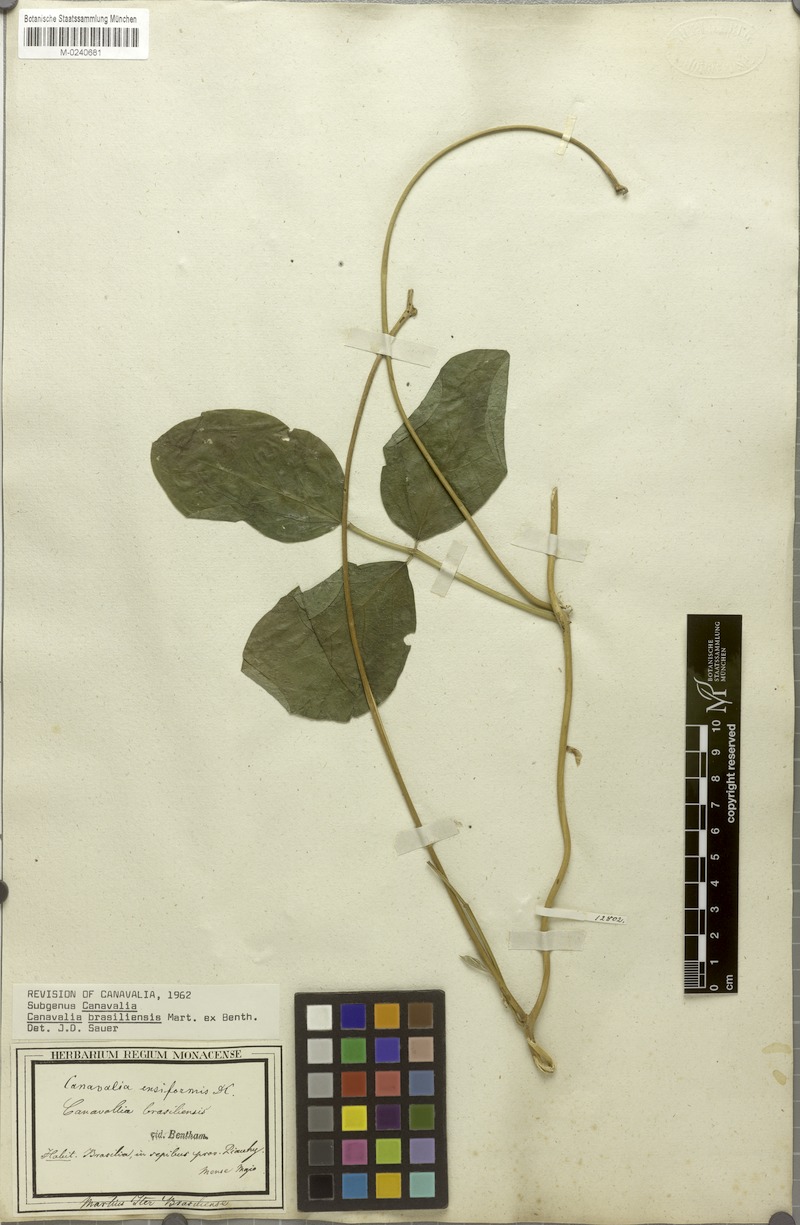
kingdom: Plantae
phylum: Tracheophyta
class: Magnoliopsida
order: Fabales
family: Fabaceae
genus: Canavalia
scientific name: Canavalia brasiliensis
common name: Barbicou-bean
